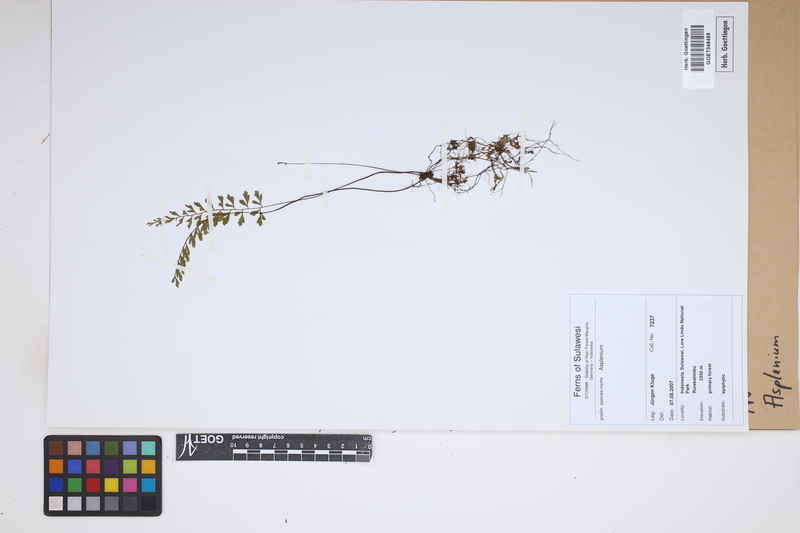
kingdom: Plantae
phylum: Tracheophyta
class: Polypodiopsida
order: Polypodiales
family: Aspleniaceae
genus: Asplenium
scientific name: Asplenium
